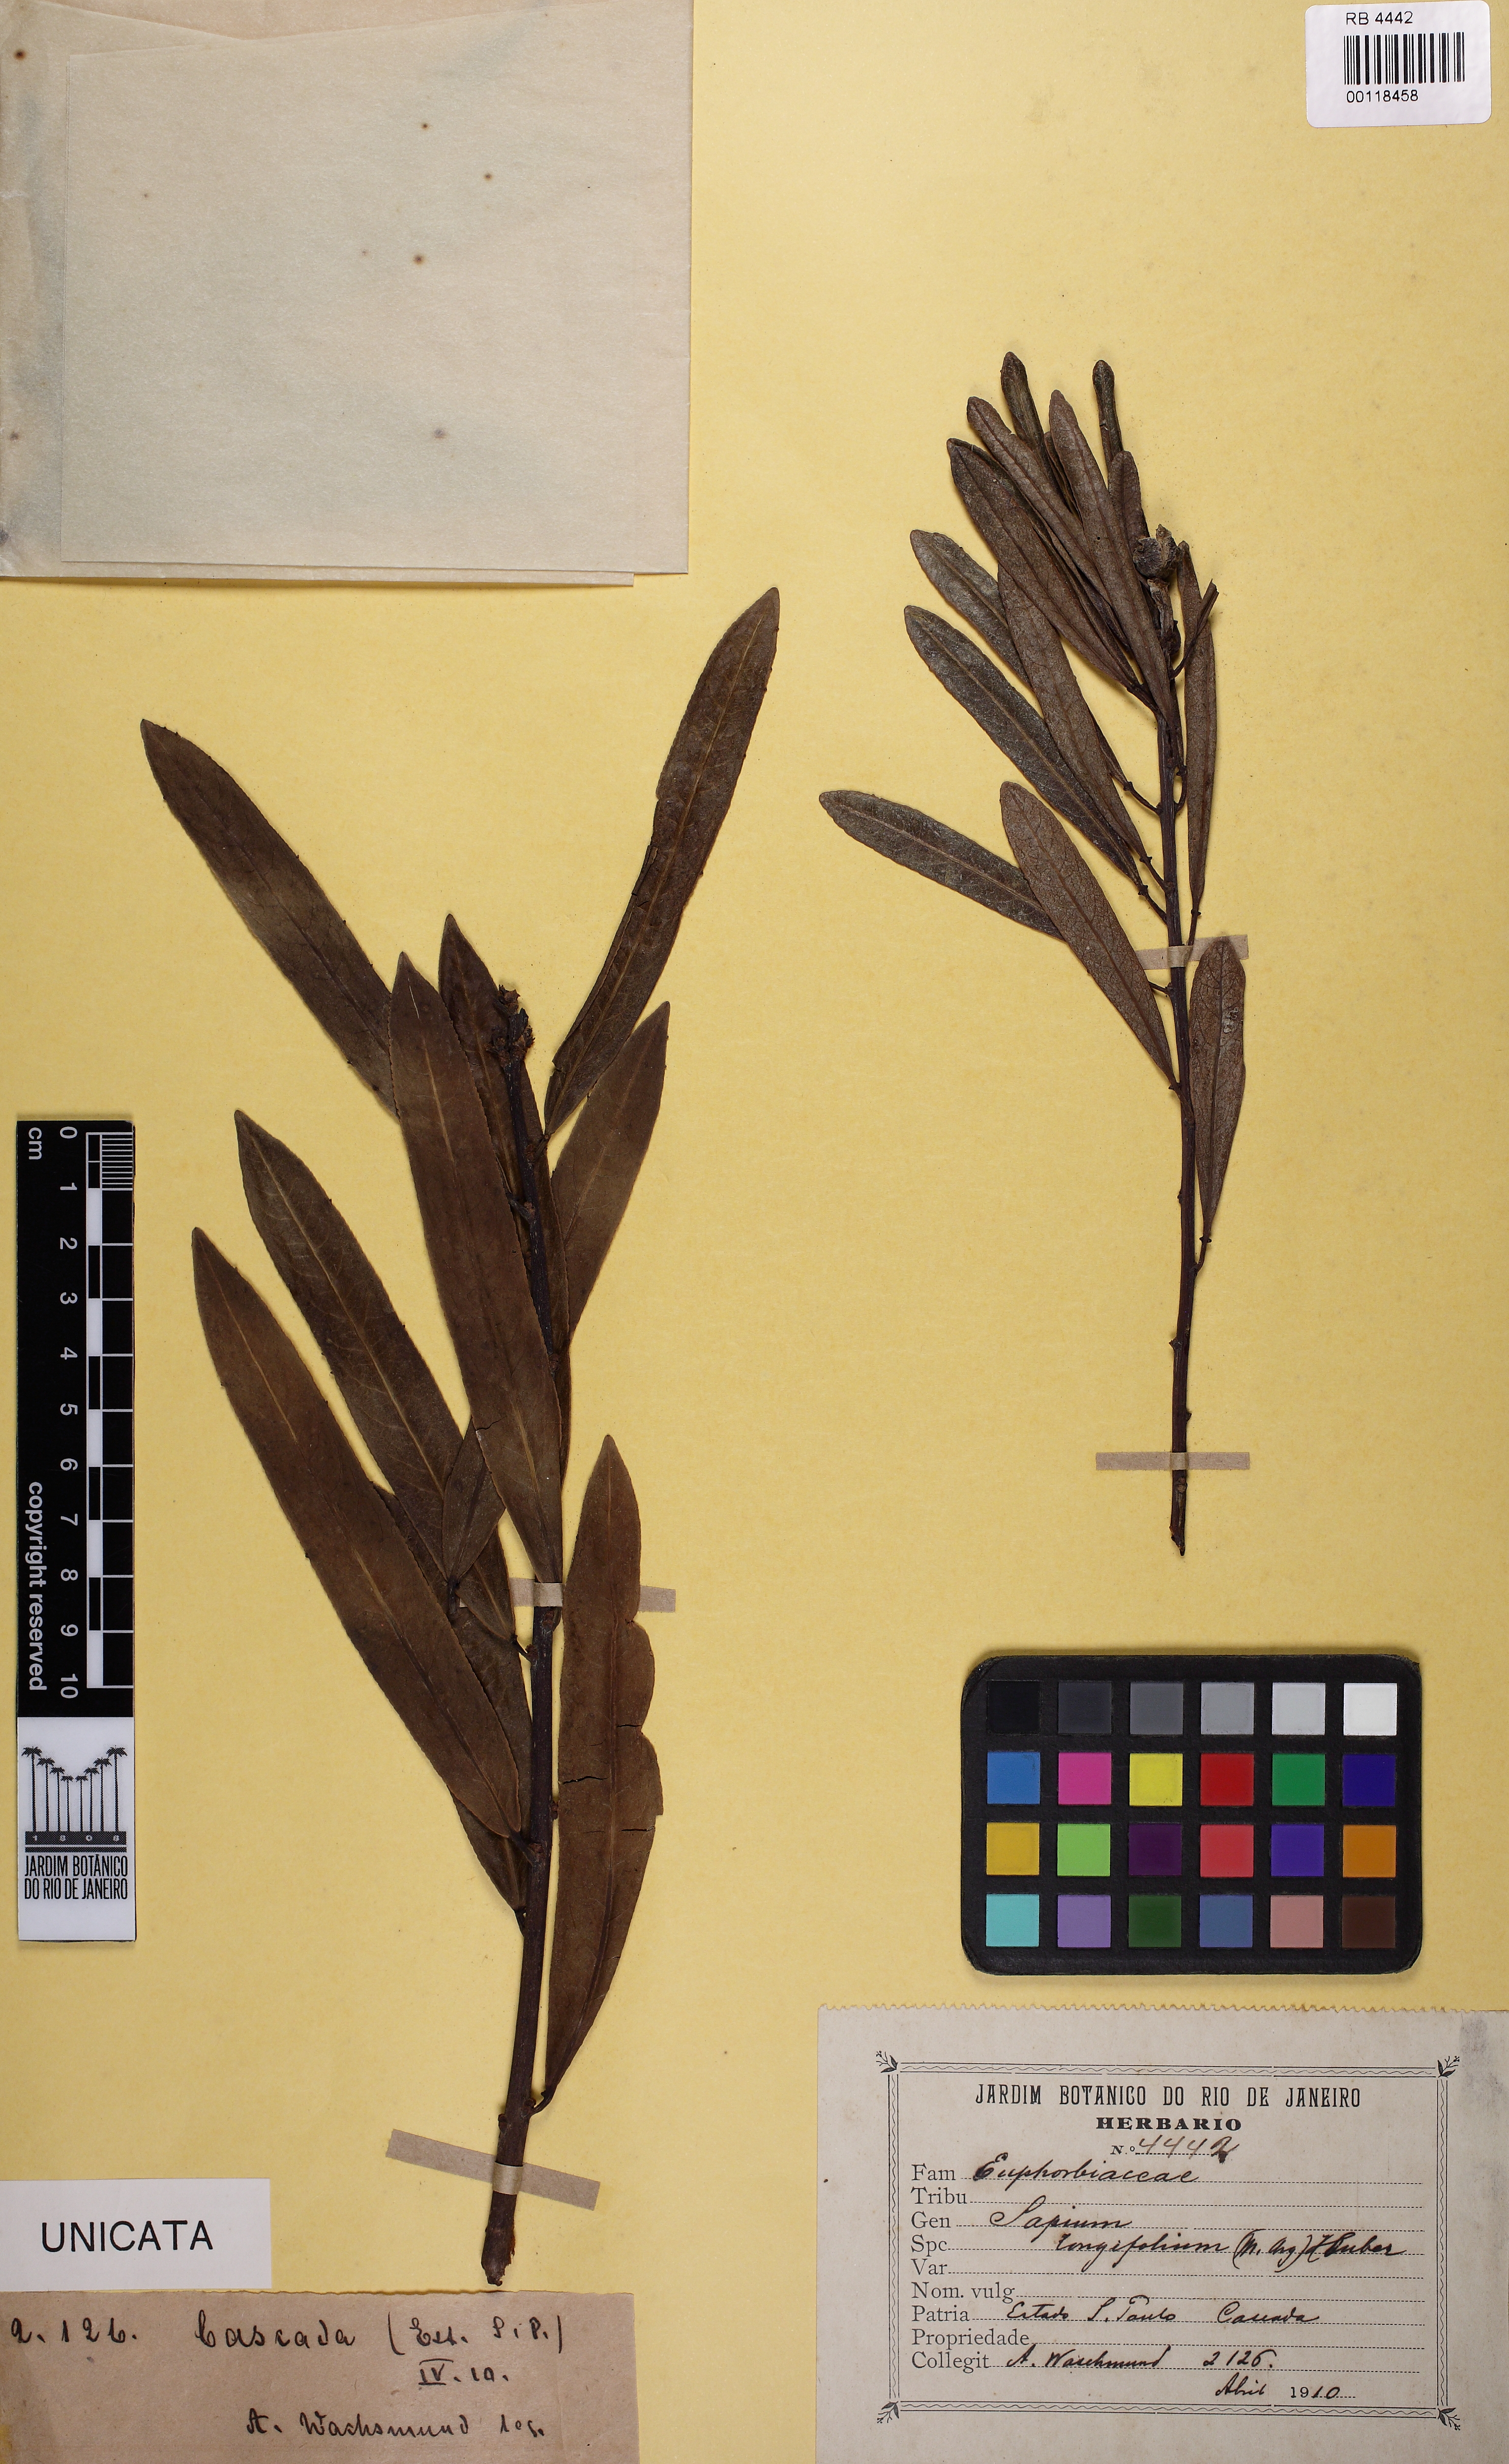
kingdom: Plantae
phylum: Tracheophyta
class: Magnoliopsida
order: Malpighiales
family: Euphorbiaceae
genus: Sapium
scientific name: Sapium haematospermum
